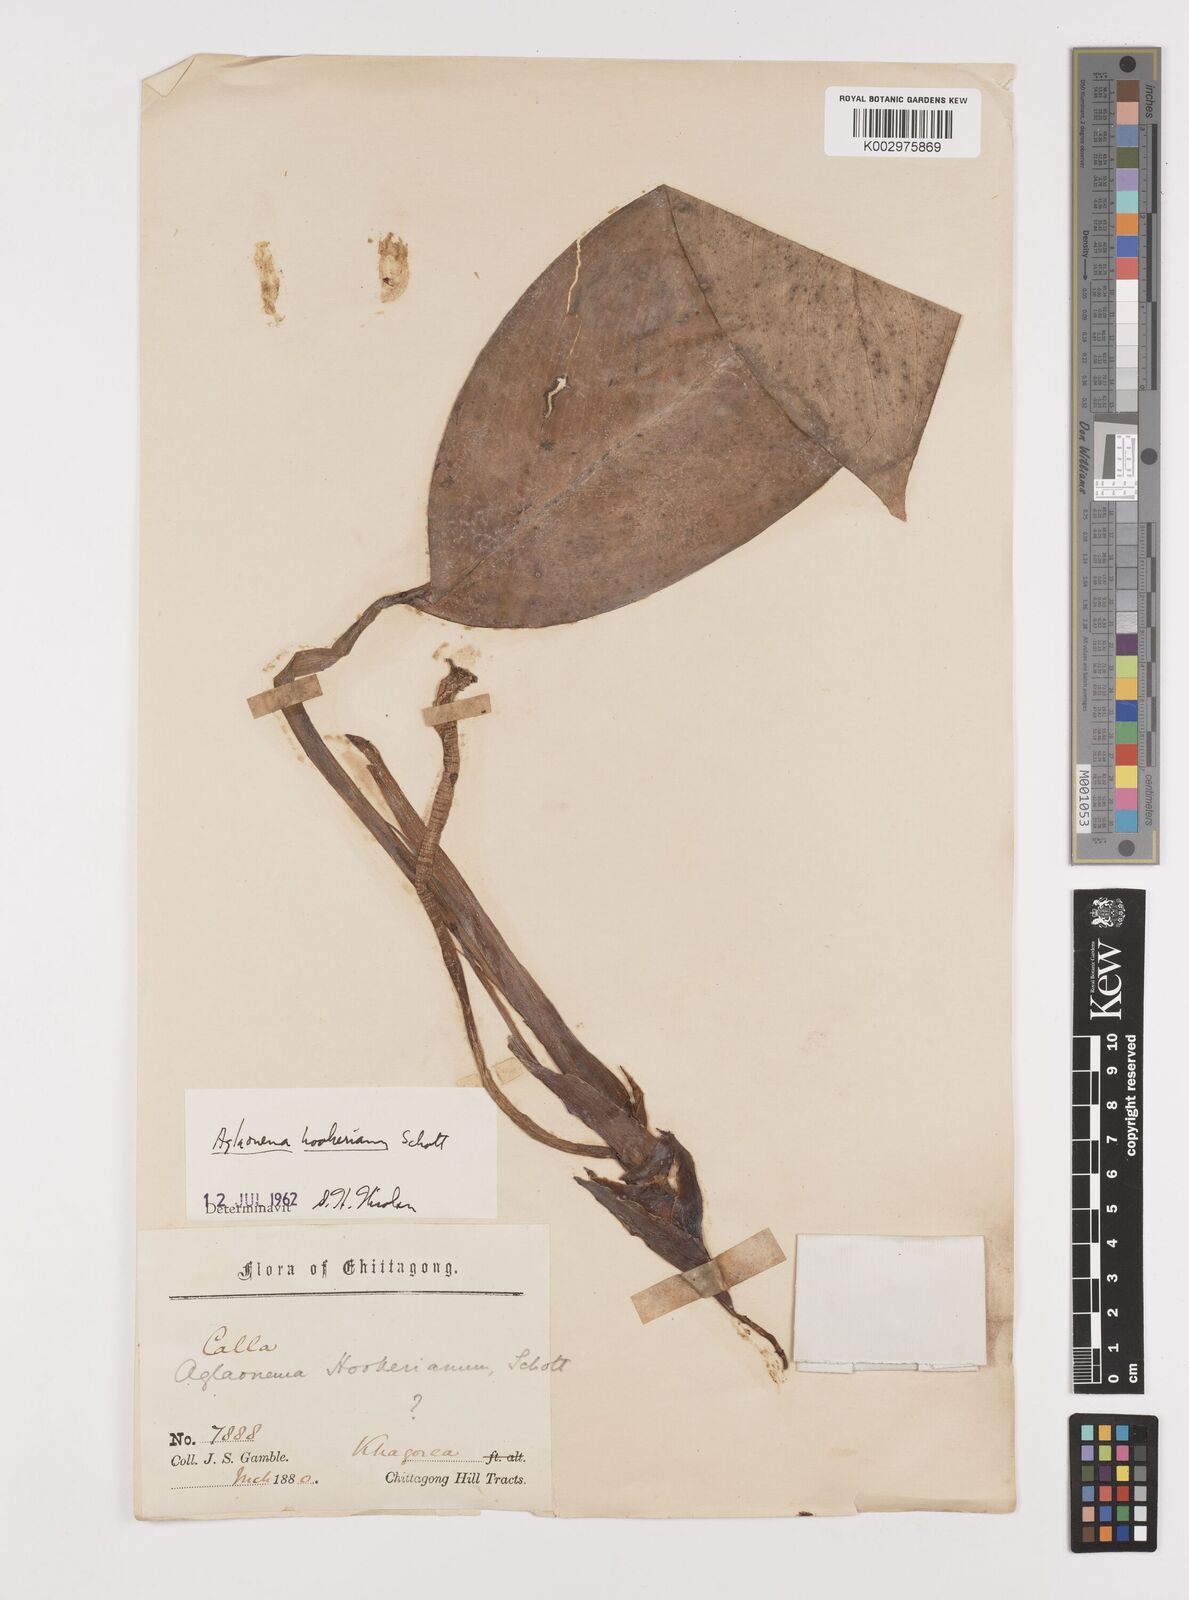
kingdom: Plantae
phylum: Tracheophyta
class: Liliopsida
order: Alismatales
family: Araceae
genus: Aglaonema
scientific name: Aglaonema hookerianum
